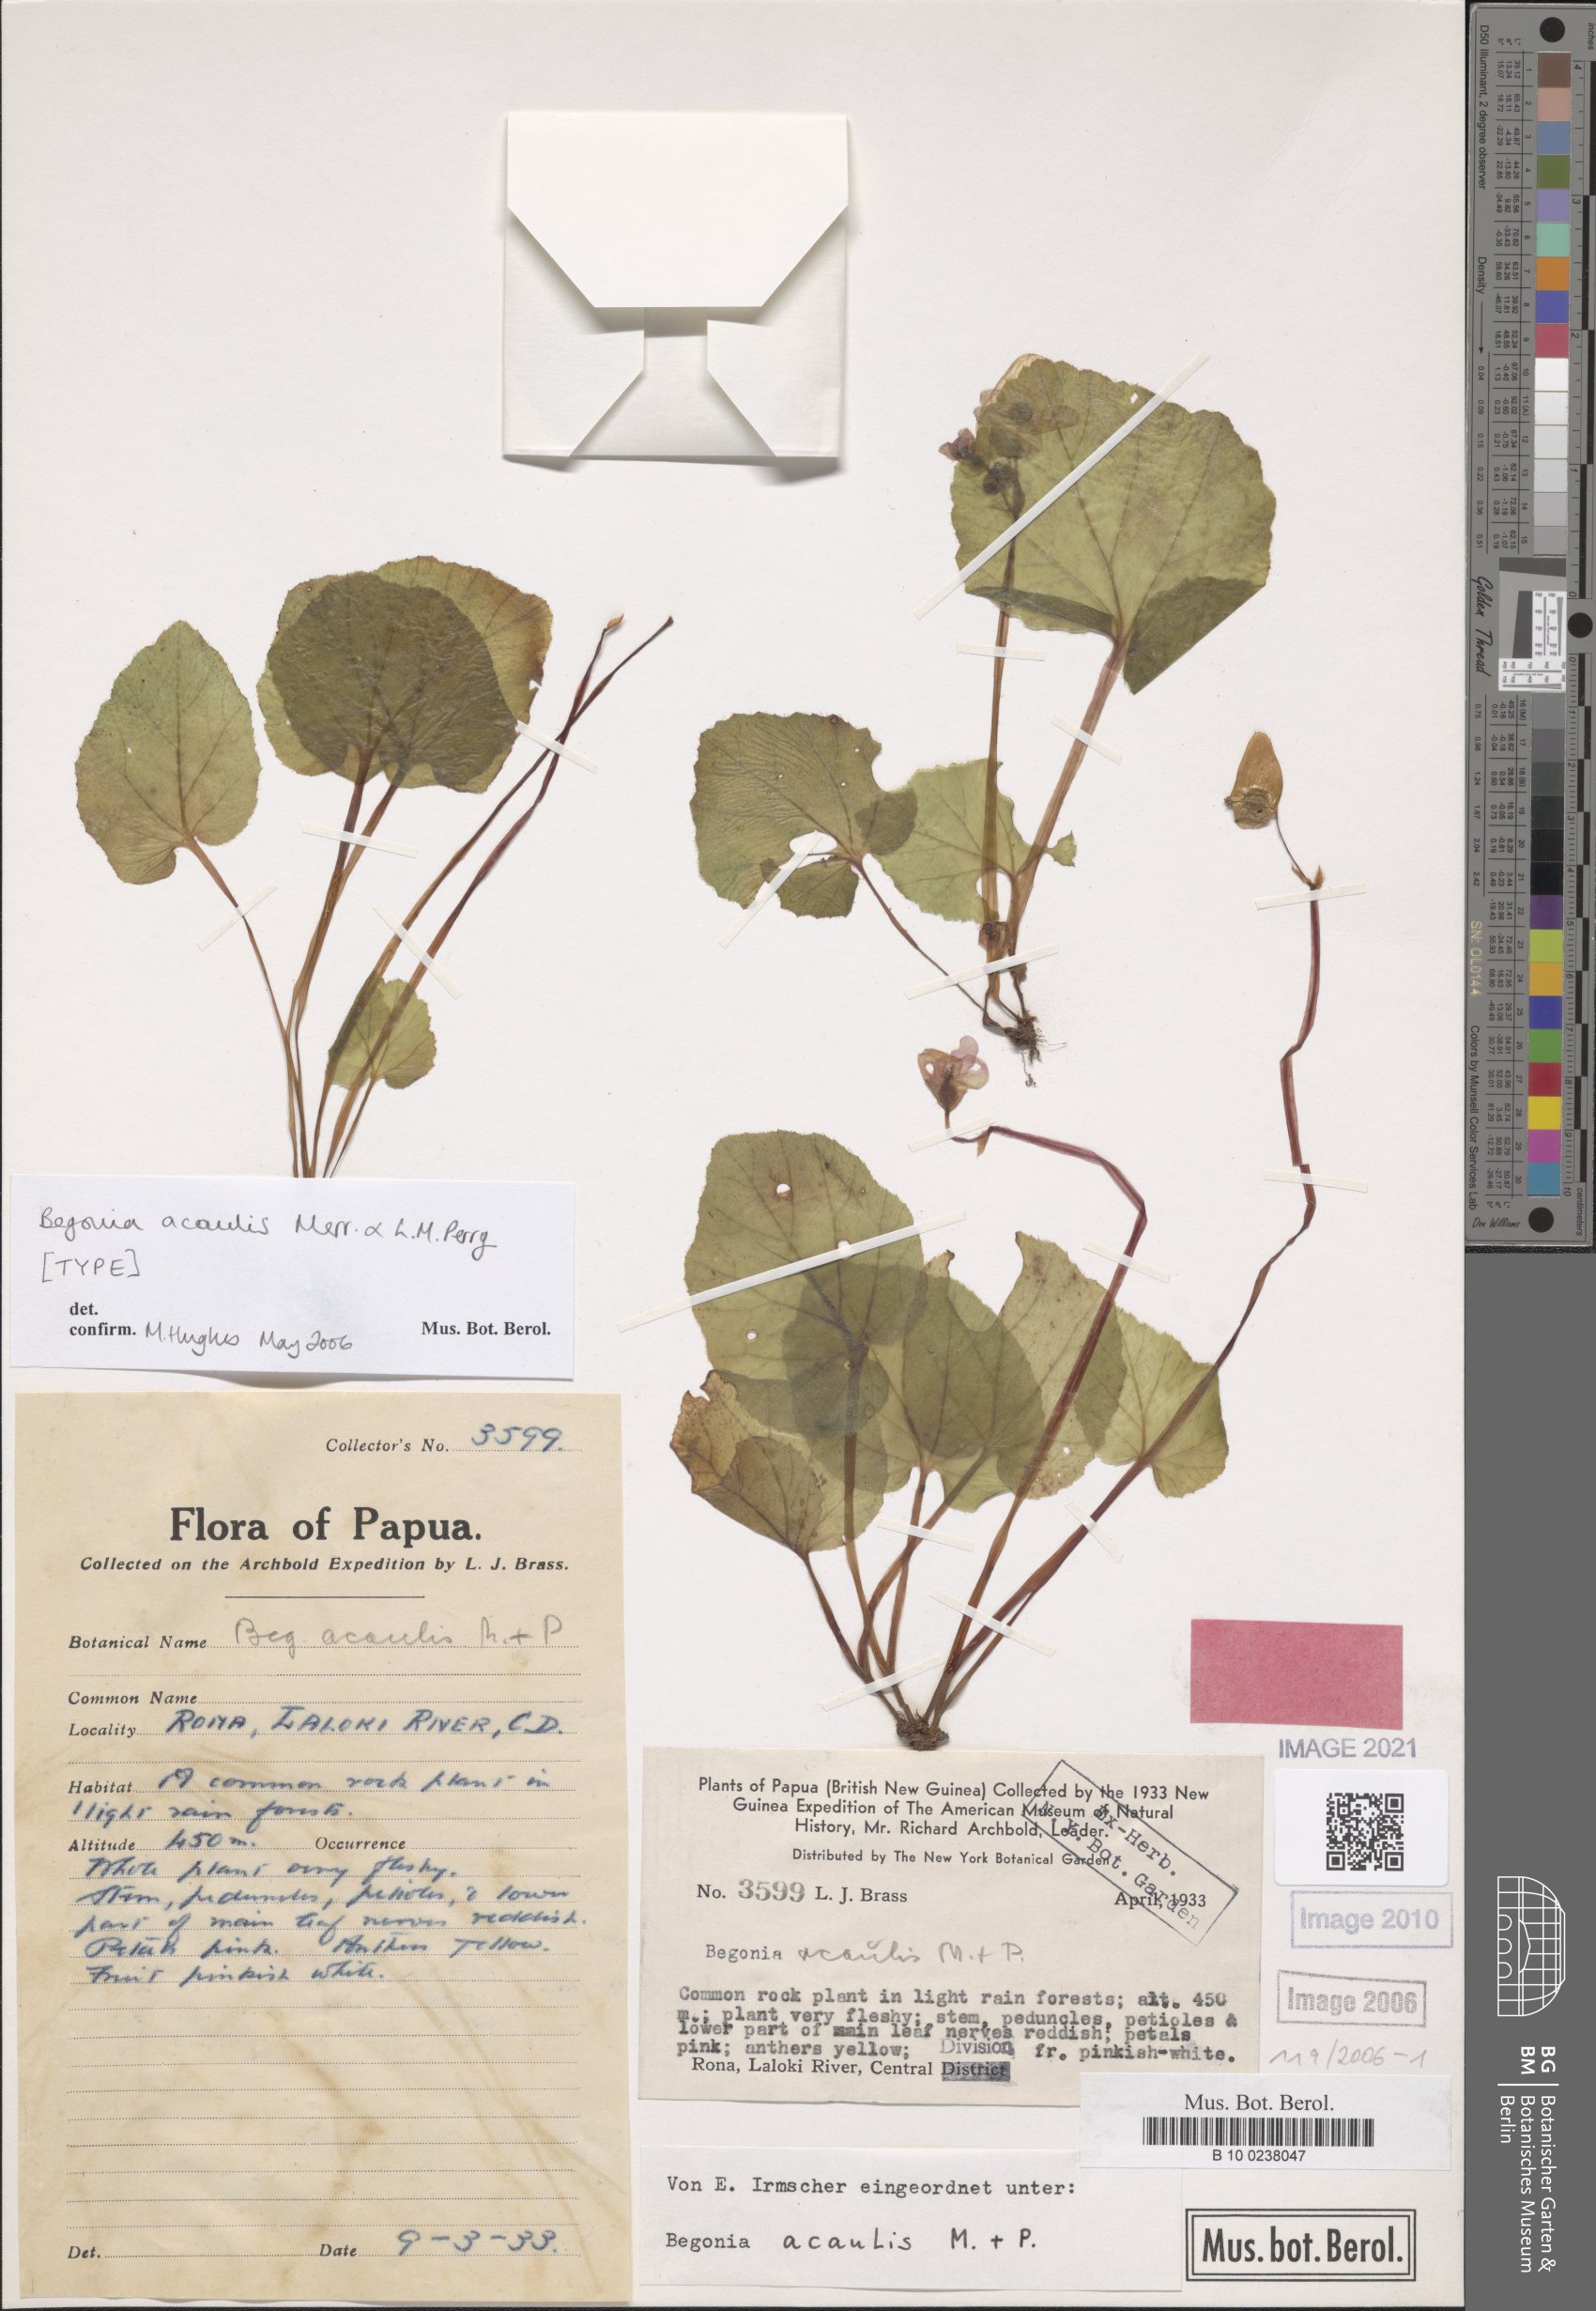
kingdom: Plantae
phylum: Tracheophyta
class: Magnoliopsida
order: Cucurbitales
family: Begoniaceae
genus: Begonia
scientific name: Begonia acaulis
